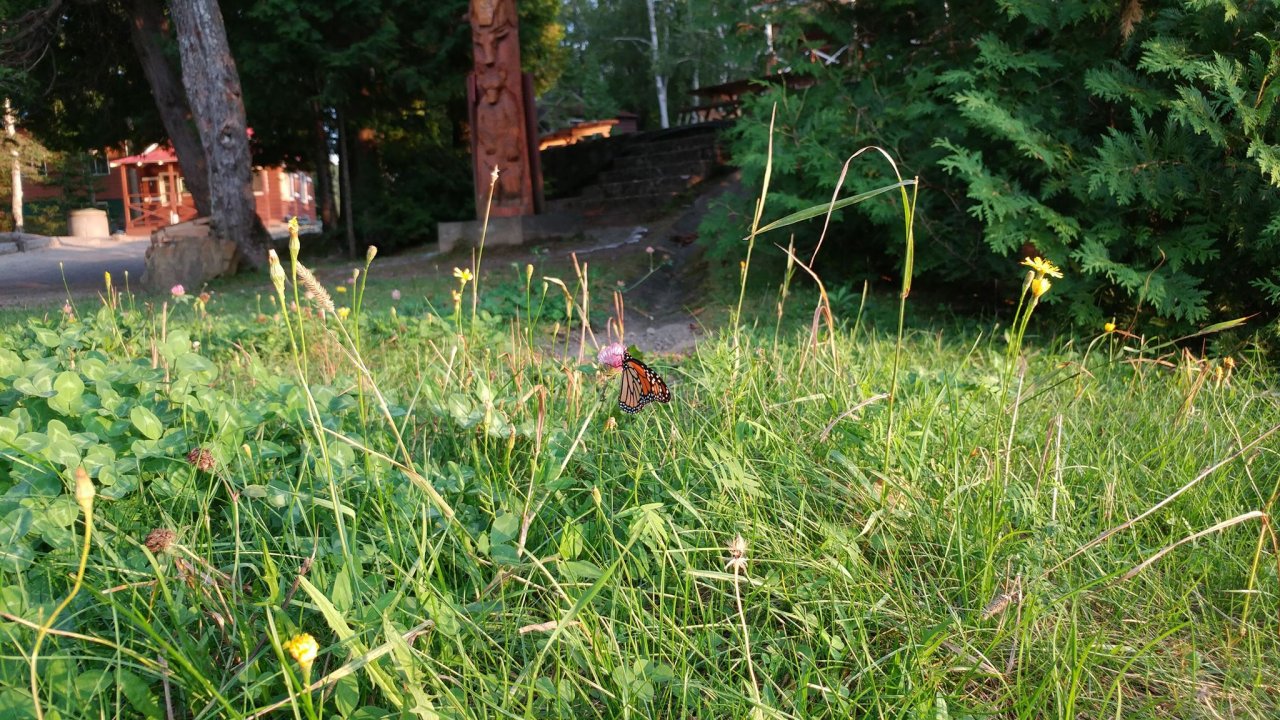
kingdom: Animalia
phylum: Arthropoda
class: Insecta
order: Lepidoptera
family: Nymphalidae
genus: Danaus
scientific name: Danaus plexippus
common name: Monarch
